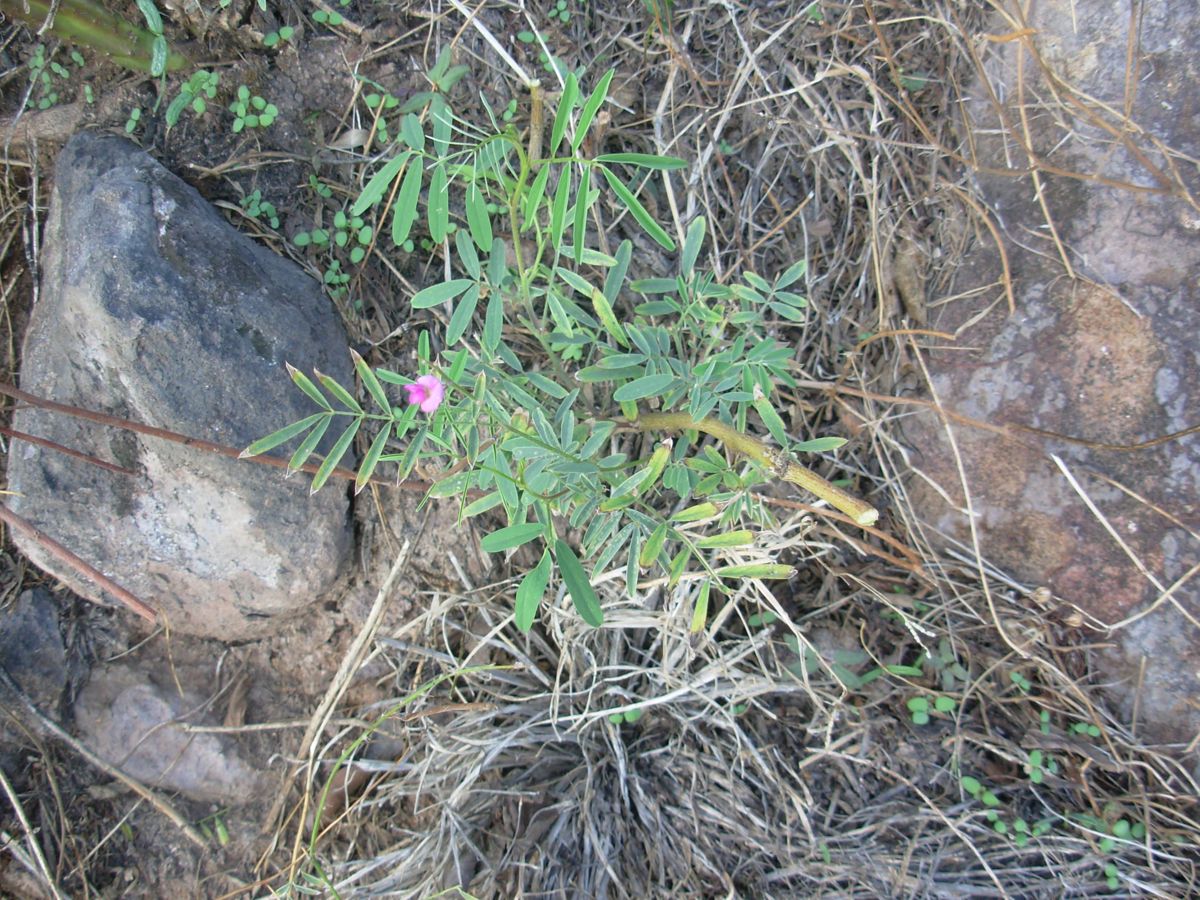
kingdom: Plantae
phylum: Tracheophyta
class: Magnoliopsida
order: Fabales
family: Fabaceae
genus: Tephrosia
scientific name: Tephrosia
